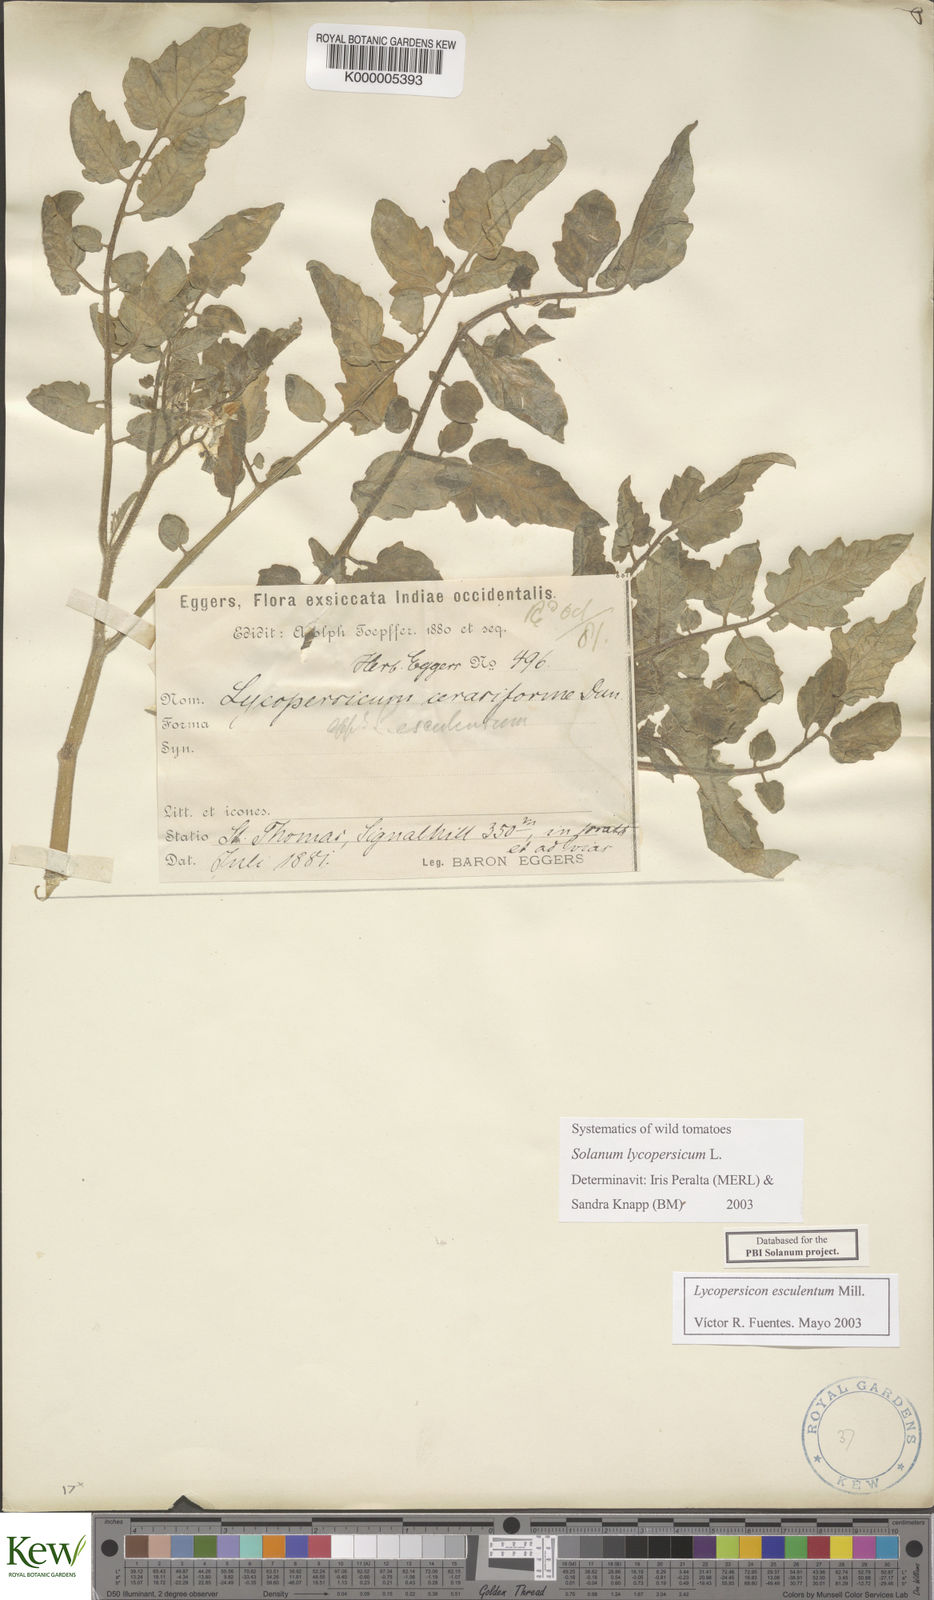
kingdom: Plantae
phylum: Tracheophyta
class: Magnoliopsida
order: Solanales
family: Solanaceae
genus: Solanum
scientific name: Solanum lycopersicum
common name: Garden tomato
